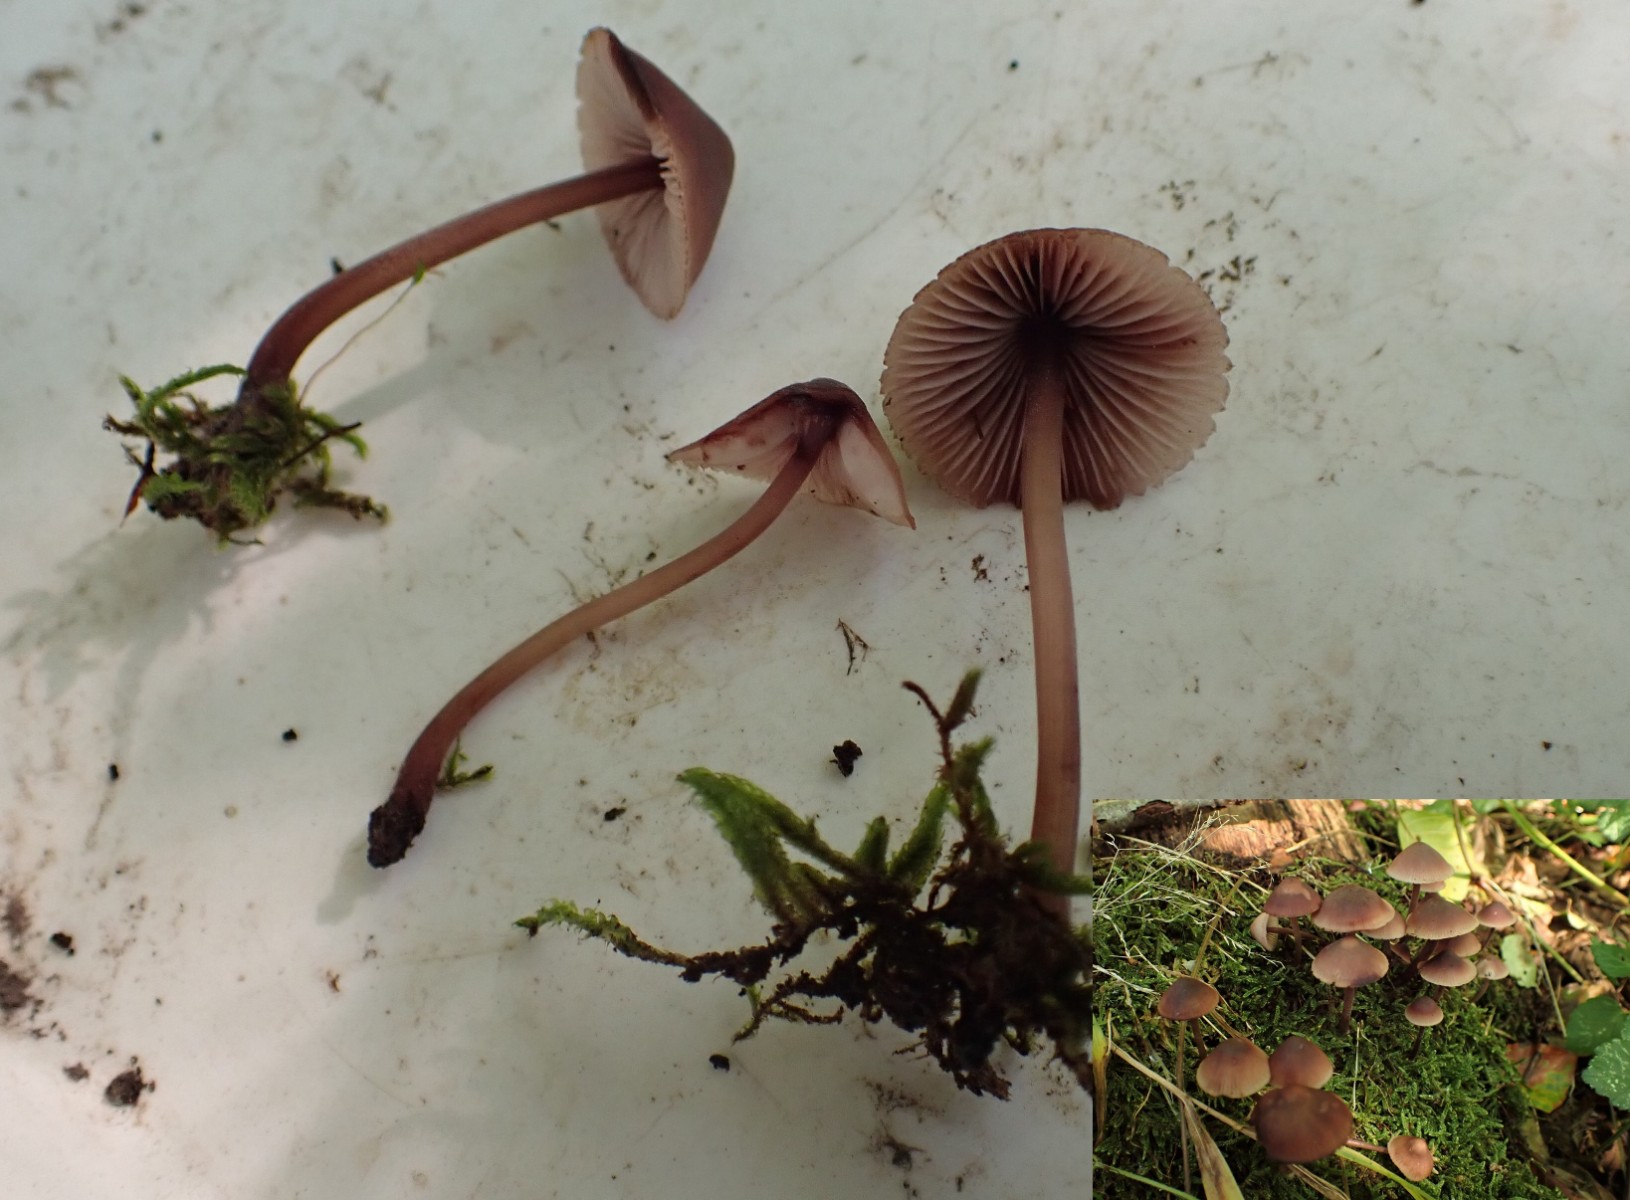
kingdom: Fungi
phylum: Basidiomycota
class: Agaricomycetes
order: Agaricales
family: Mycenaceae
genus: Mycena
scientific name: Mycena haematopus
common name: blødende huesvamp
